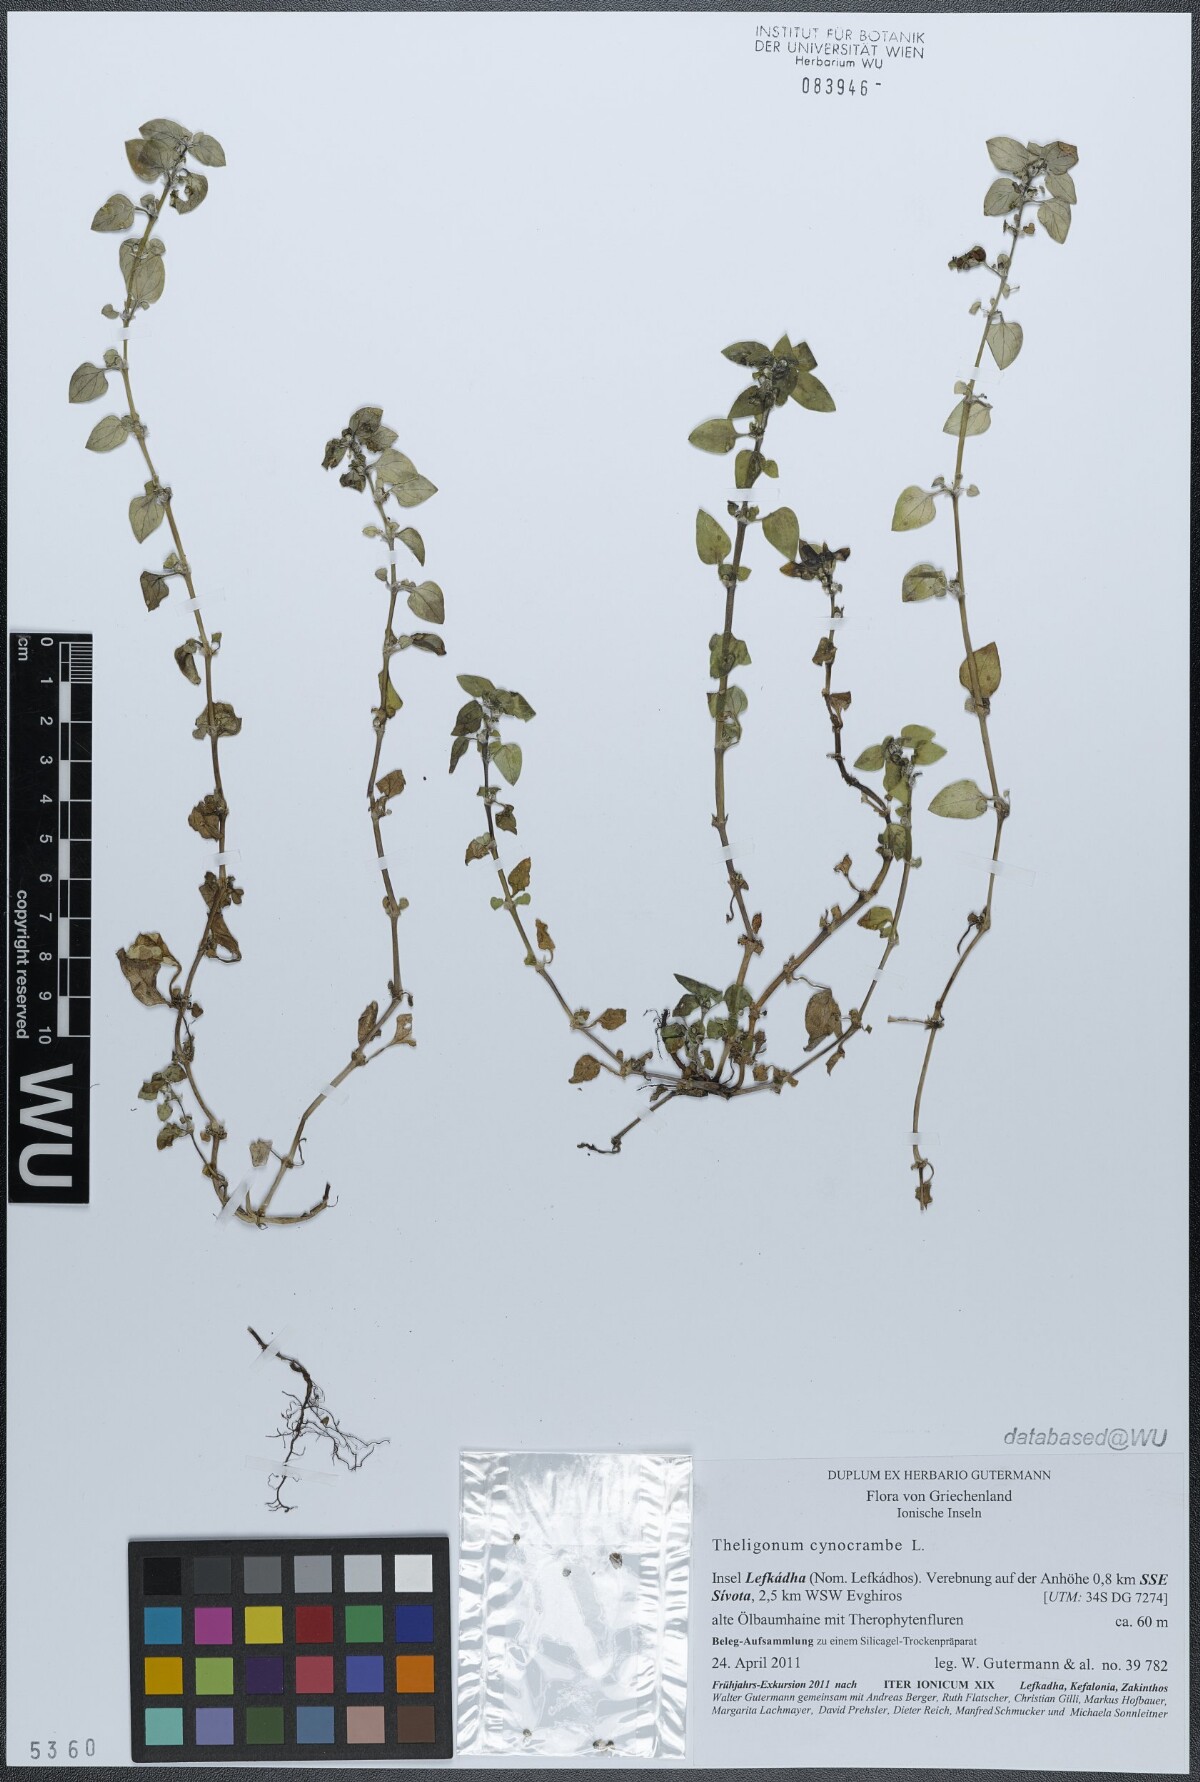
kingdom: Plantae
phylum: Tracheophyta
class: Magnoliopsida
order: Gentianales
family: Rubiaceae
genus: Theligonum
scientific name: Theligonum cynocrambe
